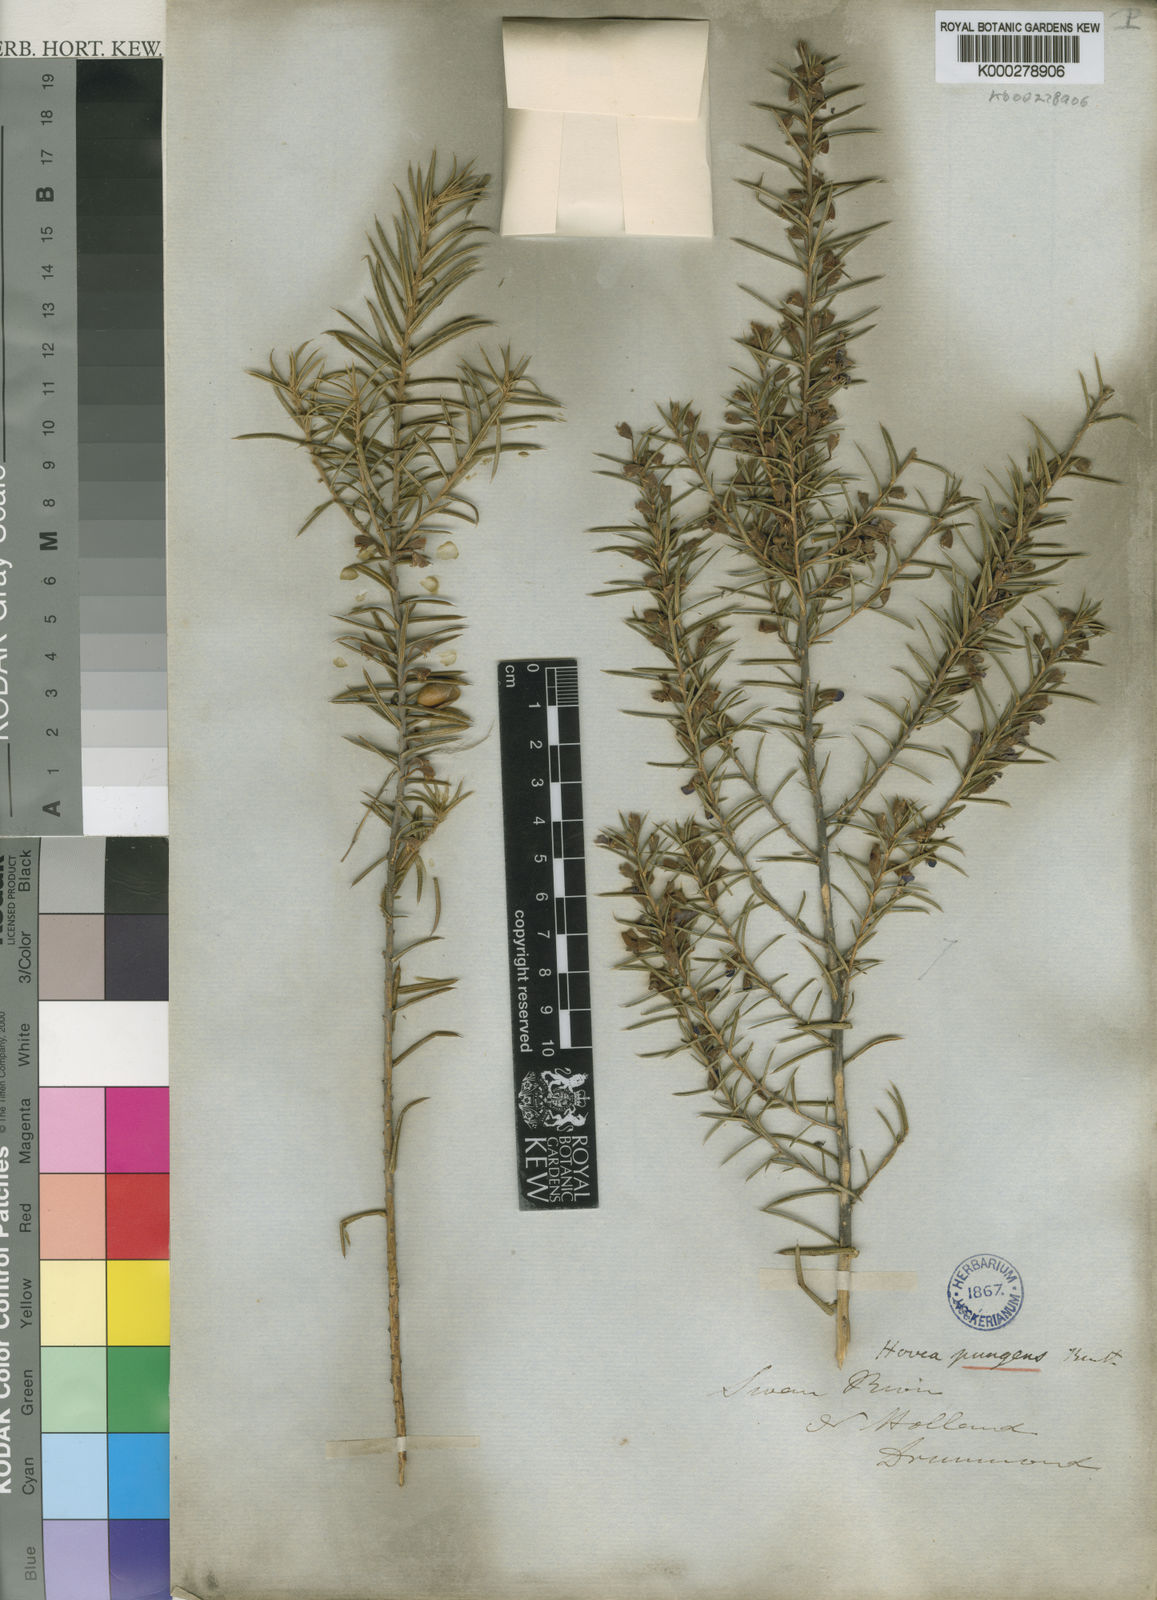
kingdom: Plantae
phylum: Tracheophyta
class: Magnoliopsida
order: Fabales
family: Fabaceae
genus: Hovea
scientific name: Hovea pungens
